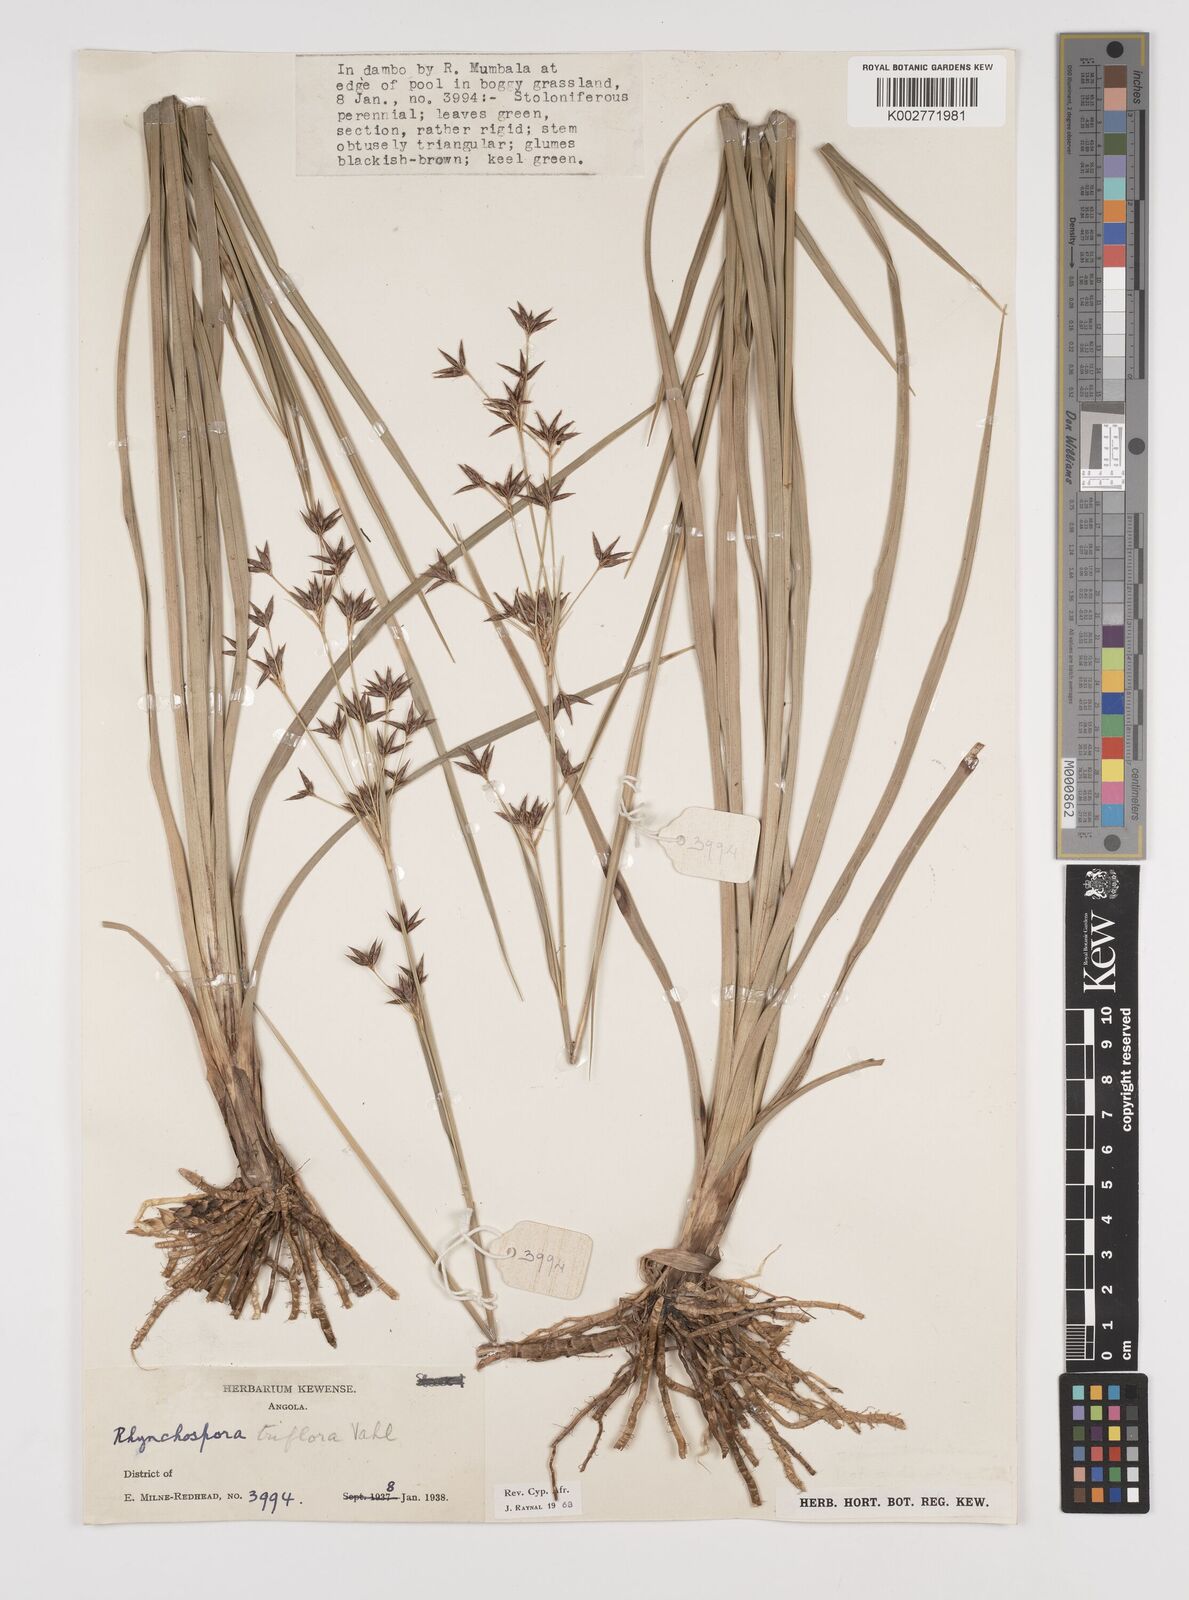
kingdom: Plantae
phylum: Tracheophyta
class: Liliopsida
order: Poales
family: Cyperaceae
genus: Rhynchospora
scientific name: Rhynchospora triflora
